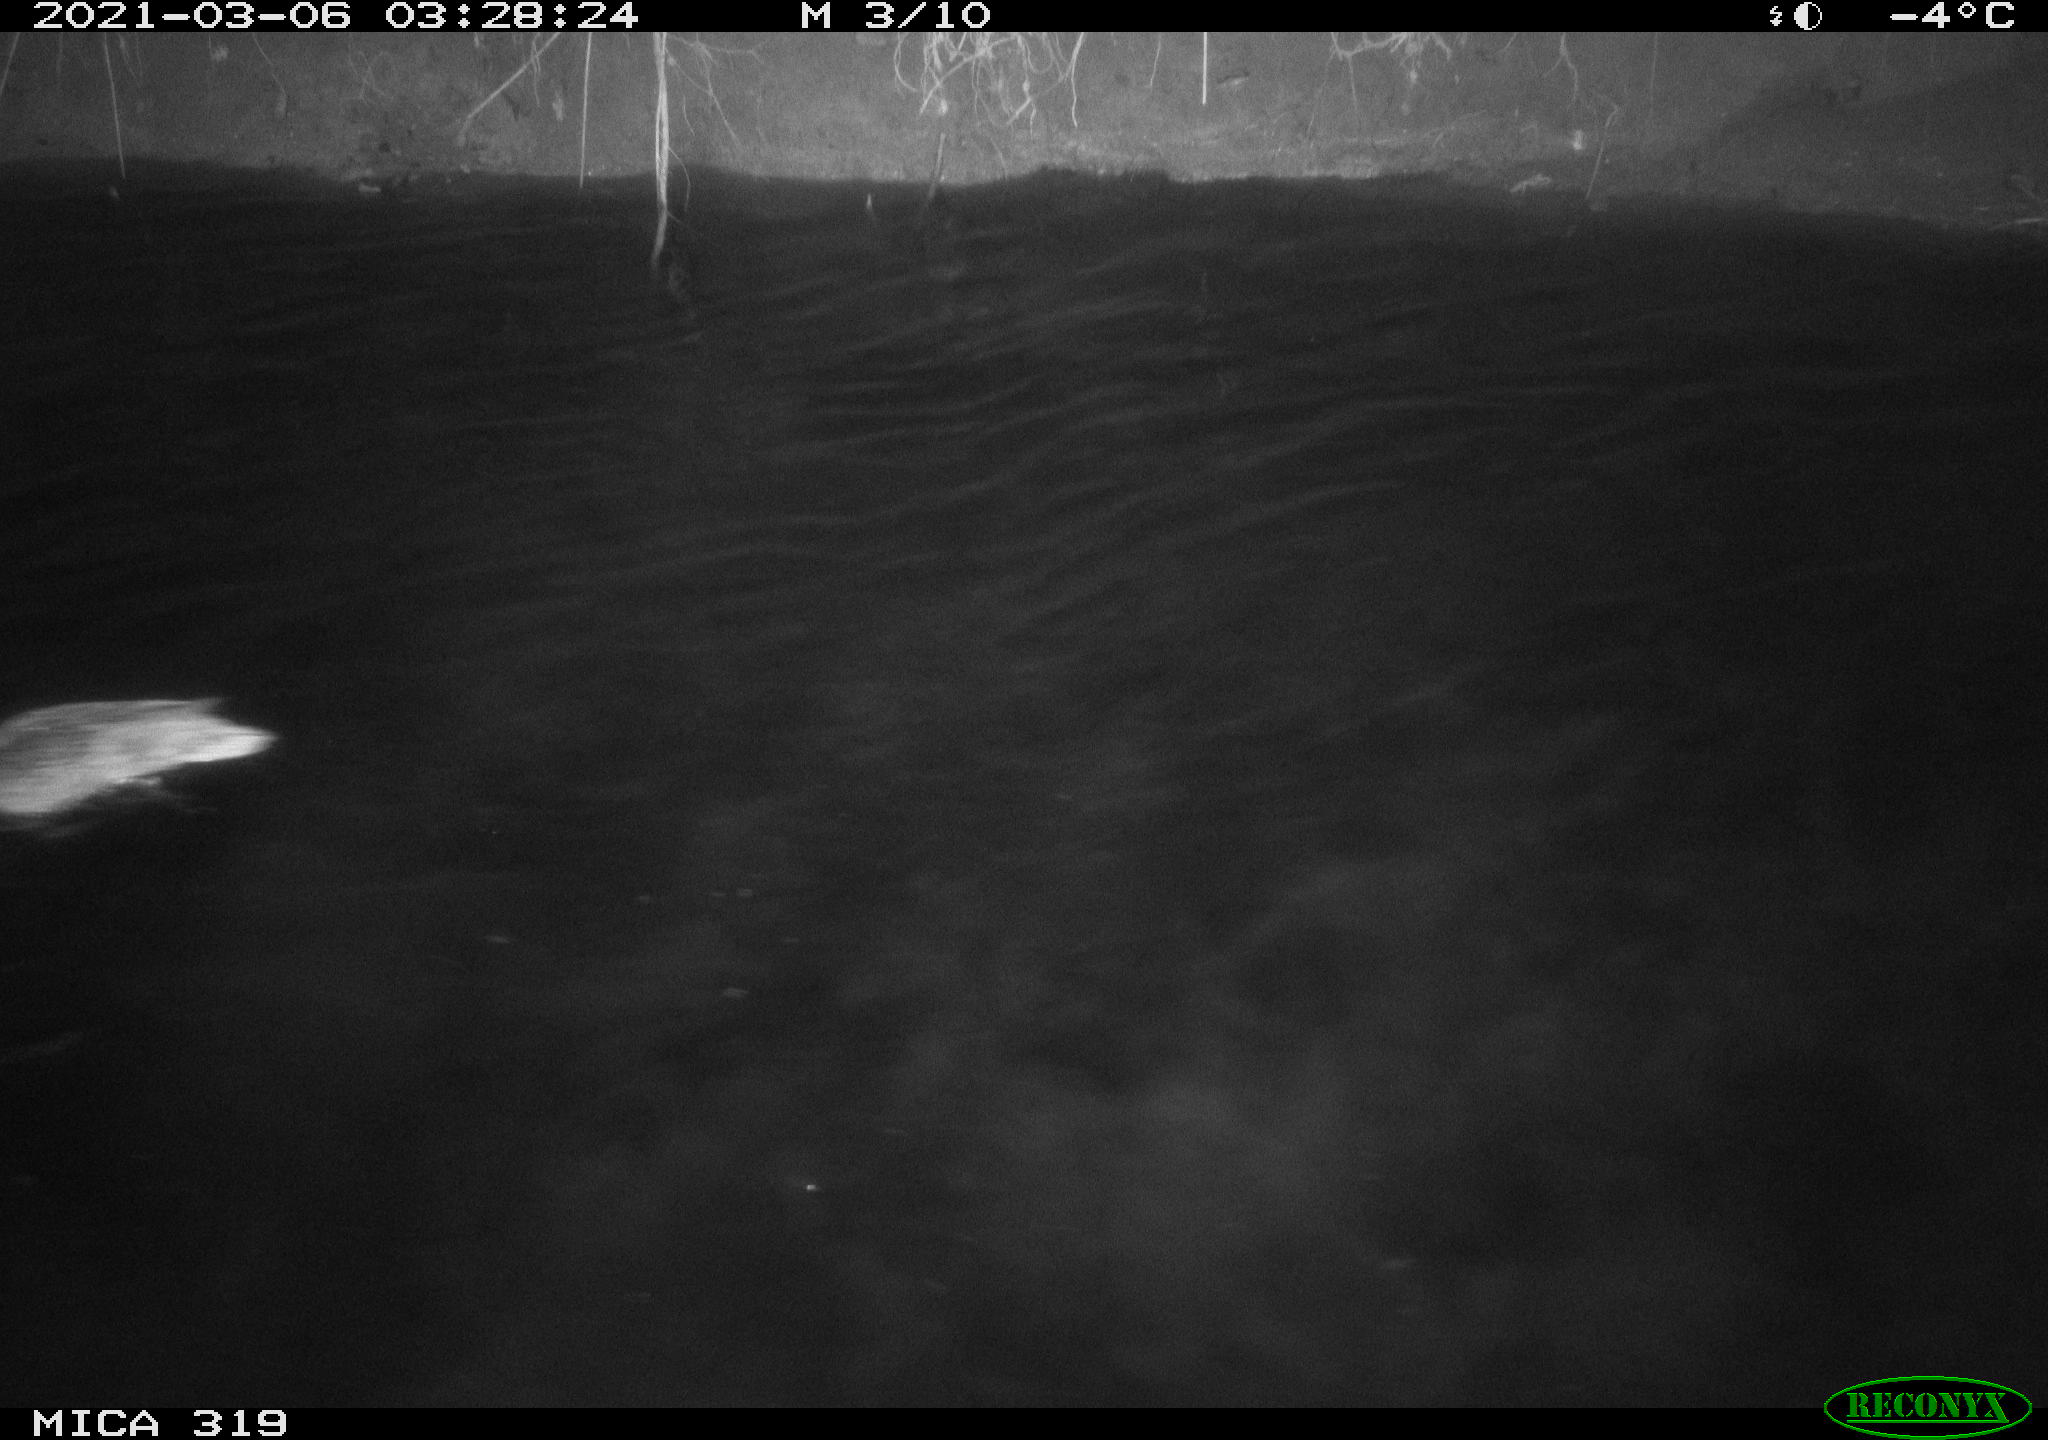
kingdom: Animalia
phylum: Chordata
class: Aves
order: Anseriformes
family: Anatidae
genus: Anas
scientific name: Anas platyrhynchos
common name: Mallard
